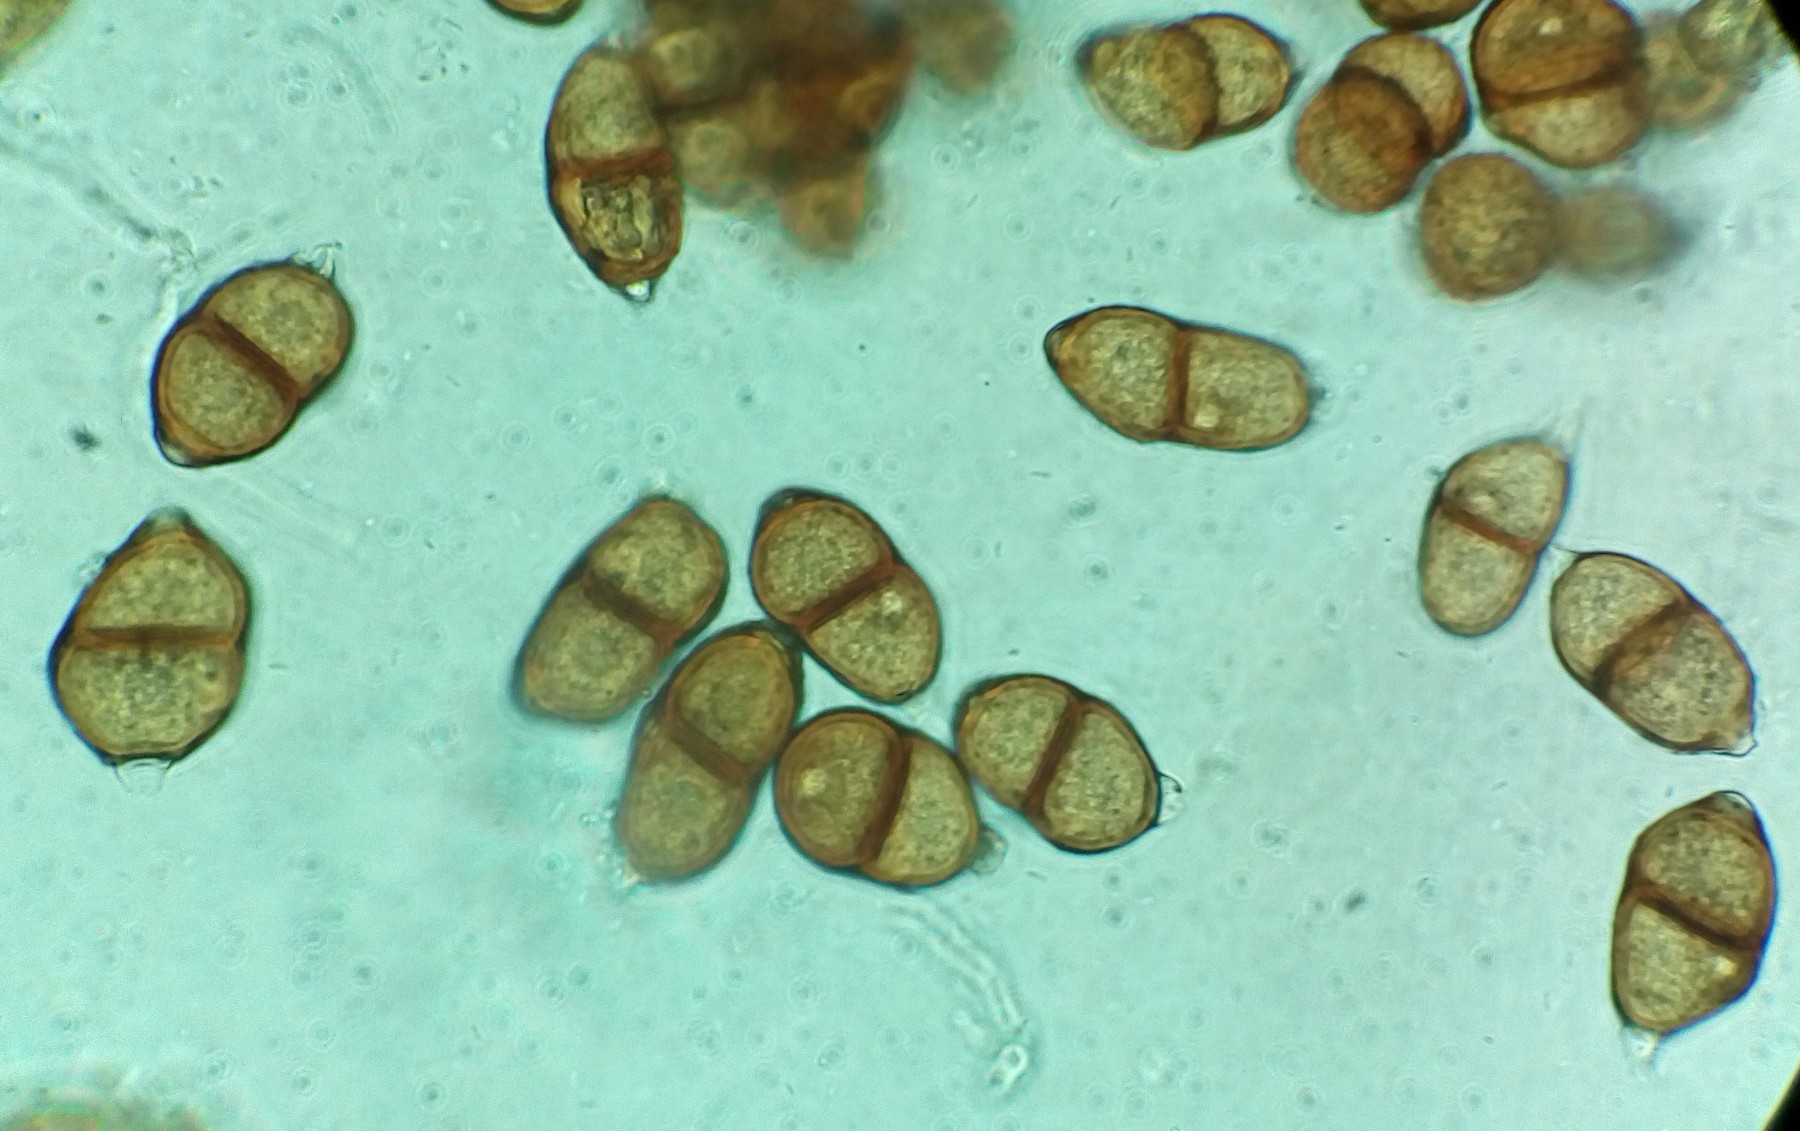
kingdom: Fungi
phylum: Basidiomycota
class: Pucciniomycetes
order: Pucciniales
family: Pucciniaceae
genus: Puccinia
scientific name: Puccinia violae
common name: viol-tvecellerust
